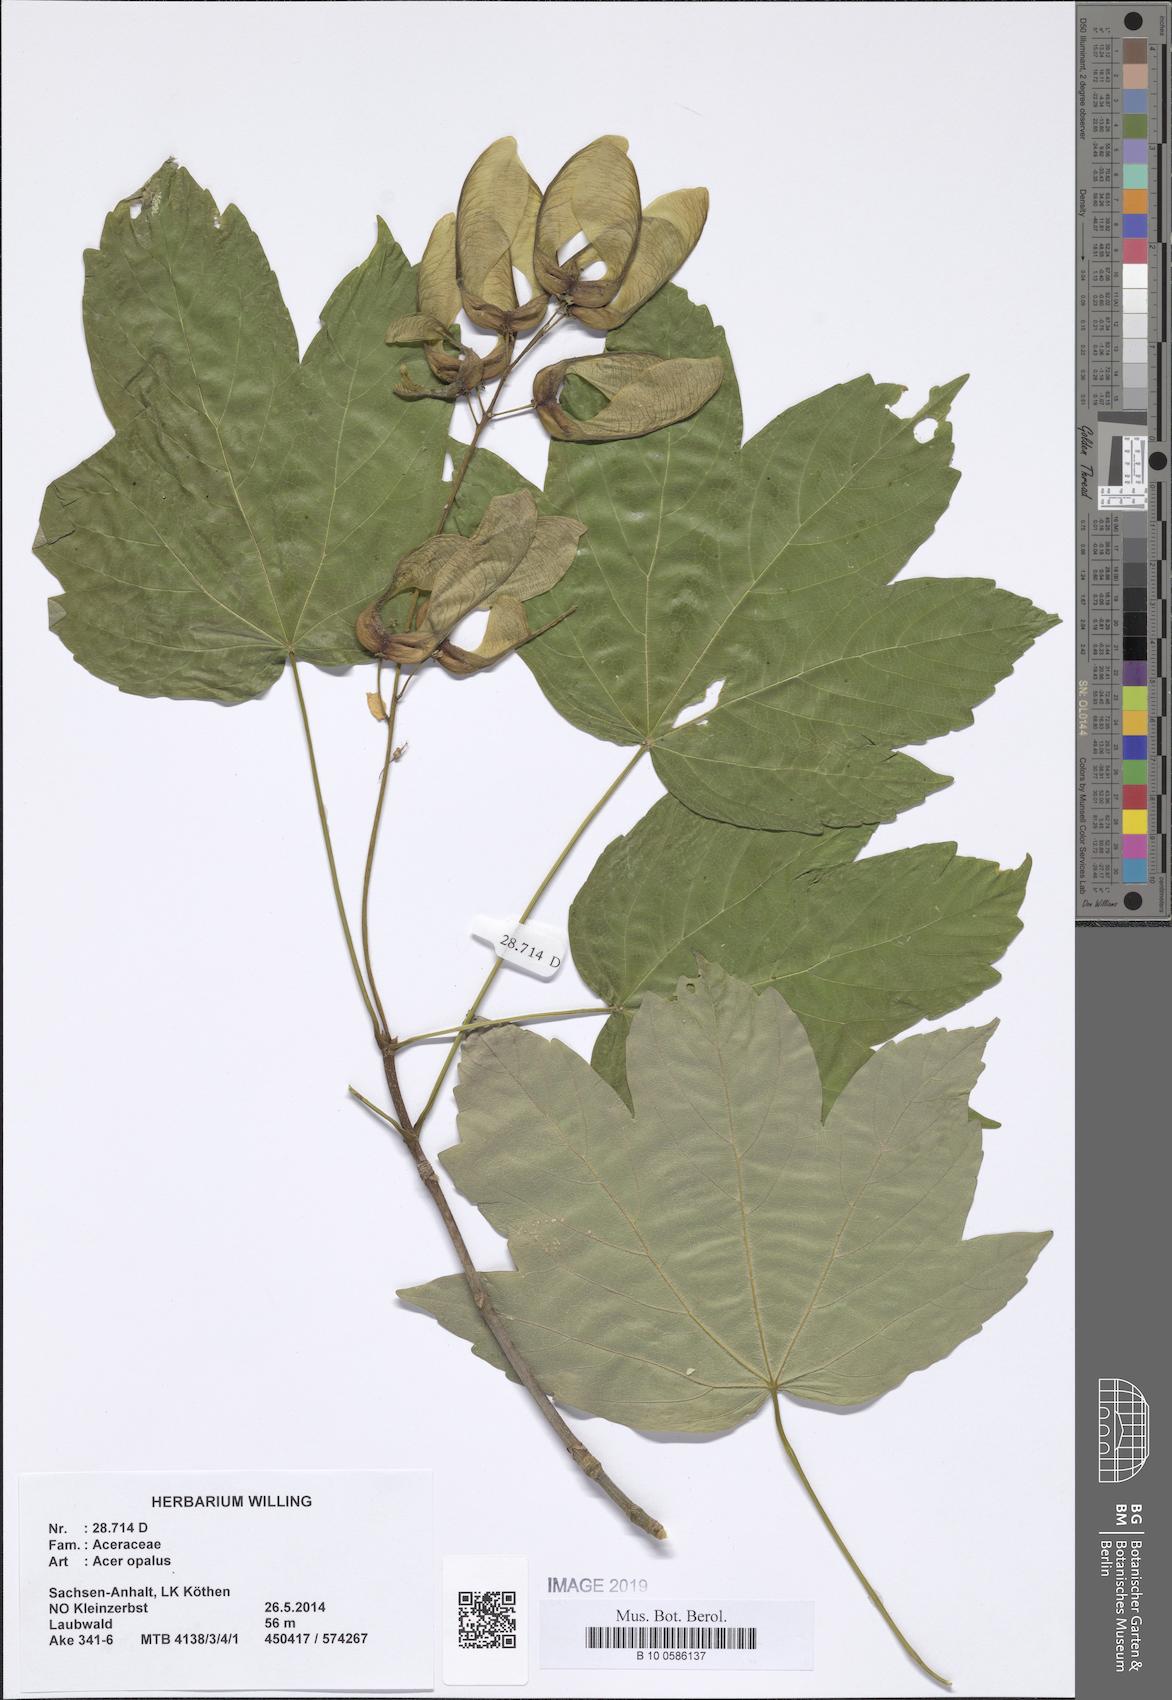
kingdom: Plantae
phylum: Tracheophyta
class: Magnoliopsida
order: Sapindales
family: Sapindaceae
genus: Acer
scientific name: Acer opalus
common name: Italian maple
